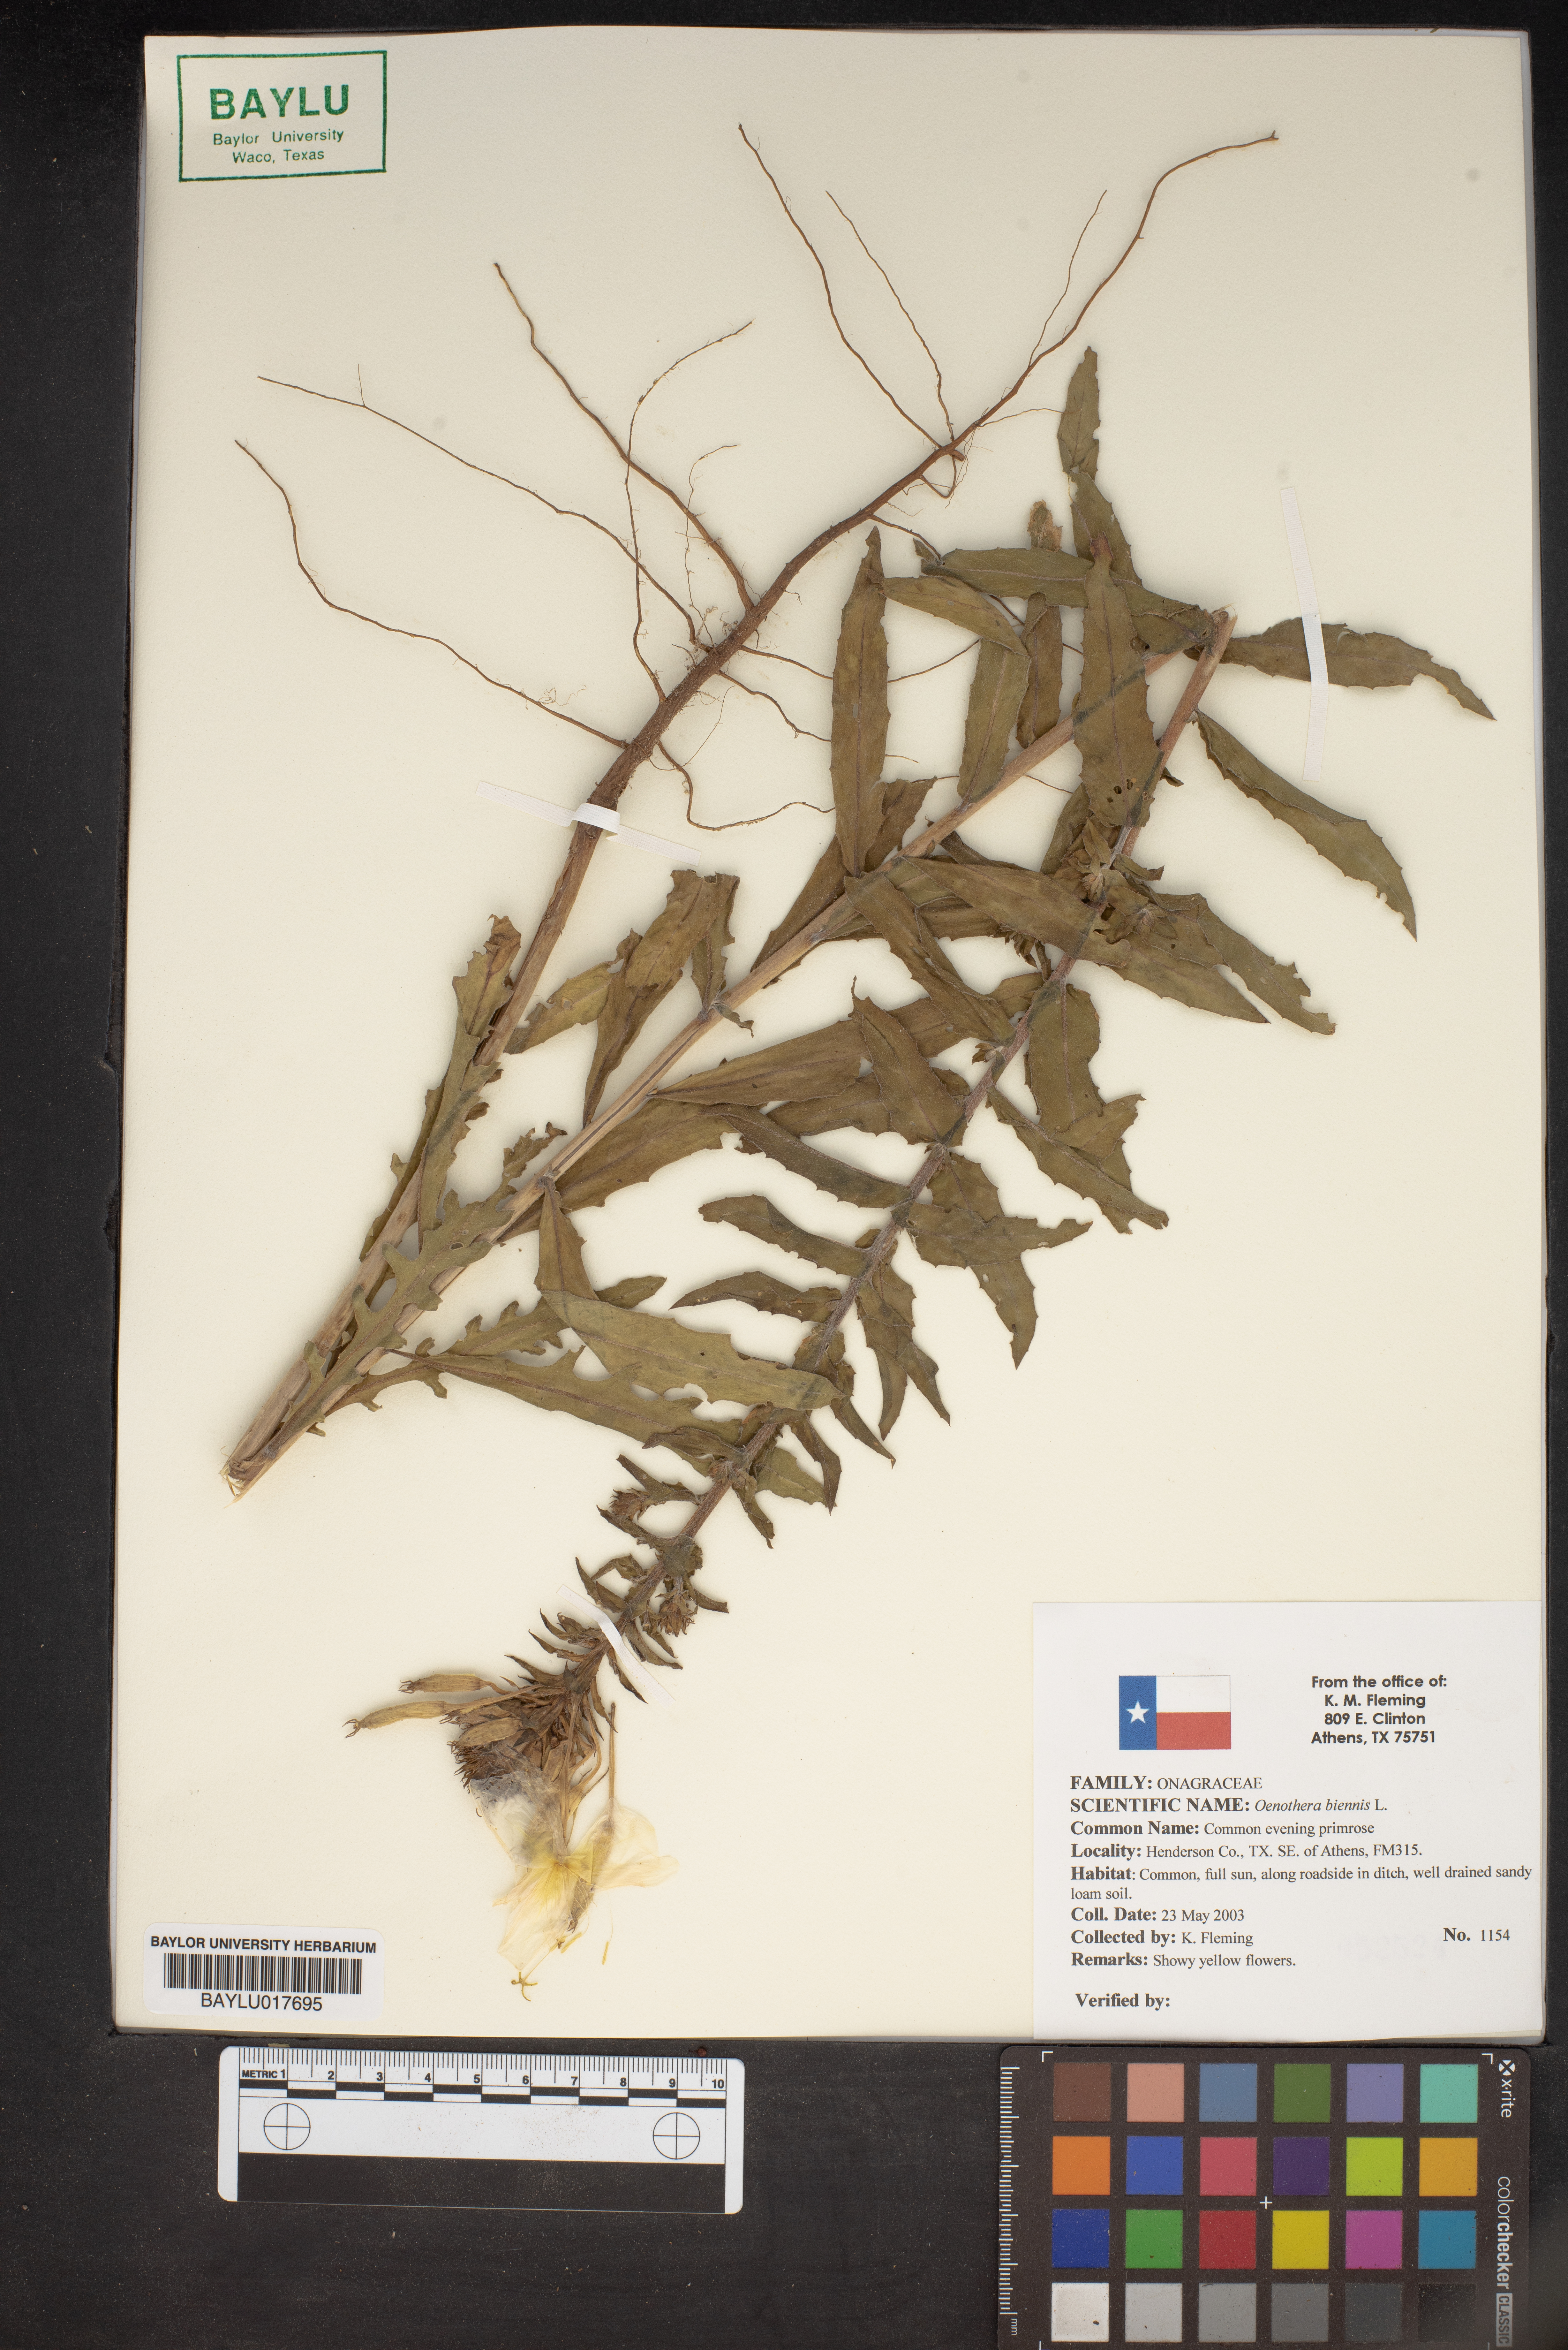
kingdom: Plantae
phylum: Tracheophyta
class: Magnoliopsida
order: Myrtales
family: Onagraceae
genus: Oenothera
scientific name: Oenothera biennis
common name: Common evening-primrose
